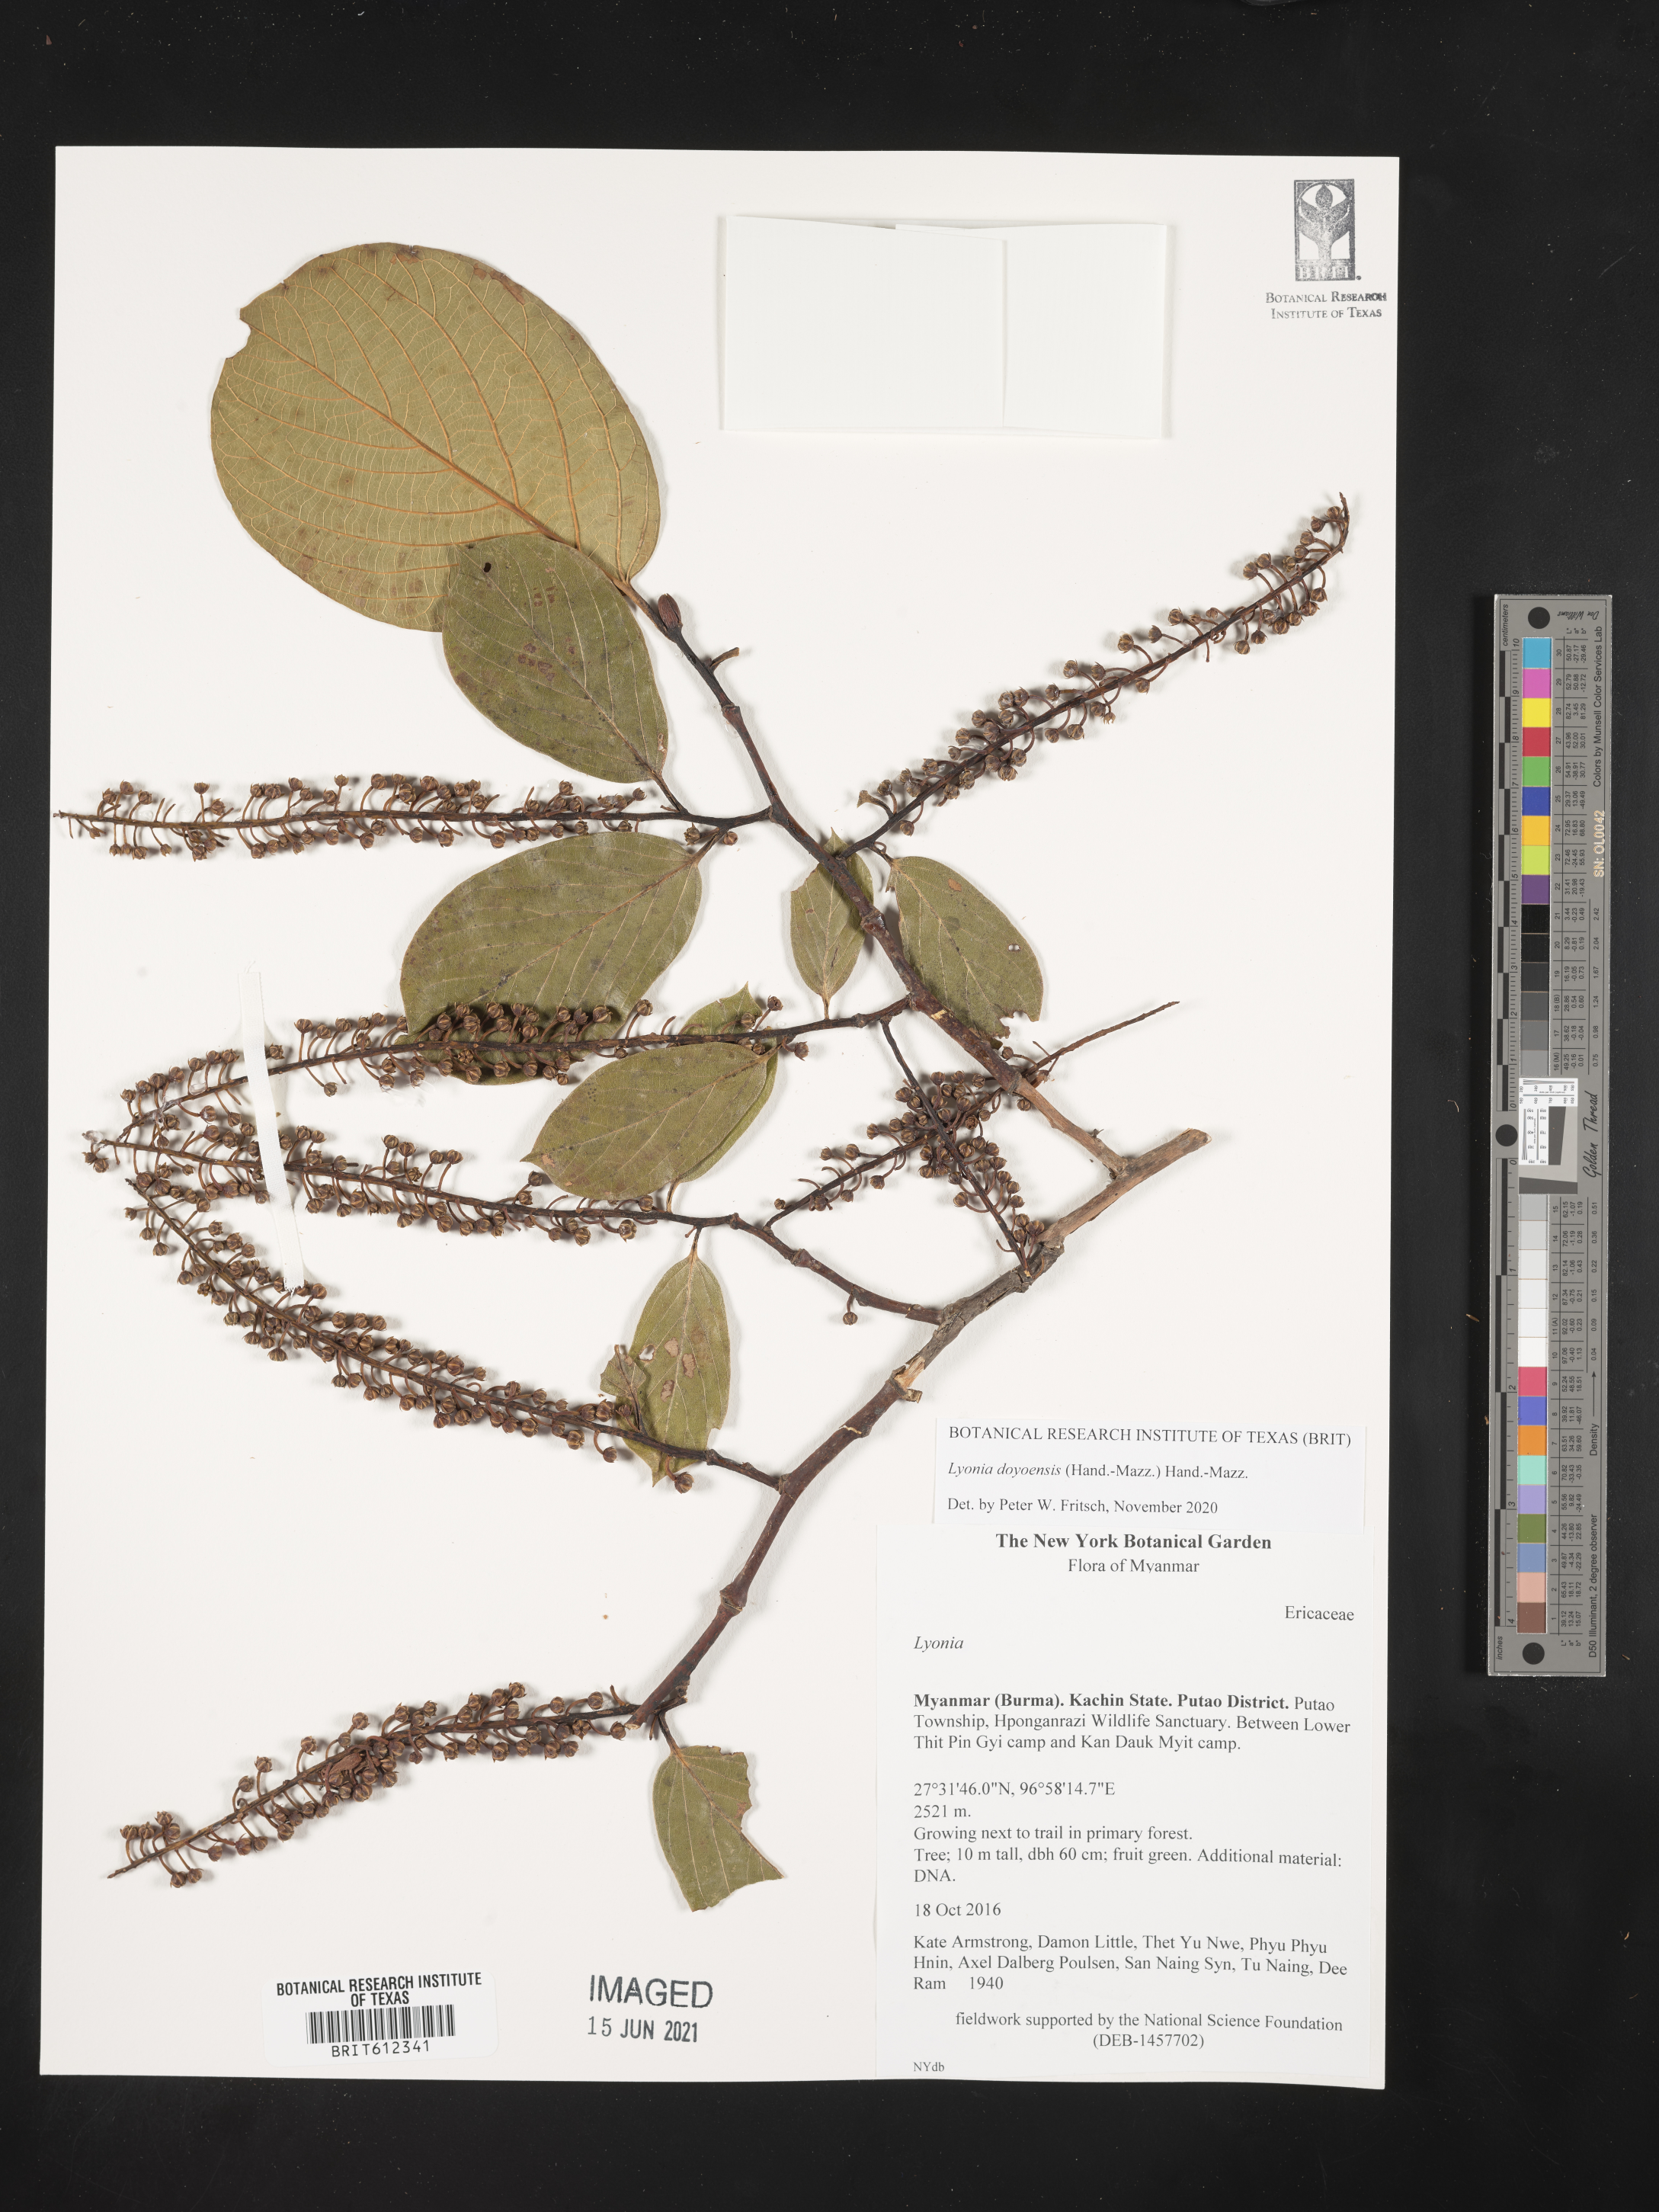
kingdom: Plantae
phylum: Tracheophyta
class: Magnoliopsida
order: Ericales
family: Ericaceae
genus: Lyonia
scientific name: Lyonia doyonensis
